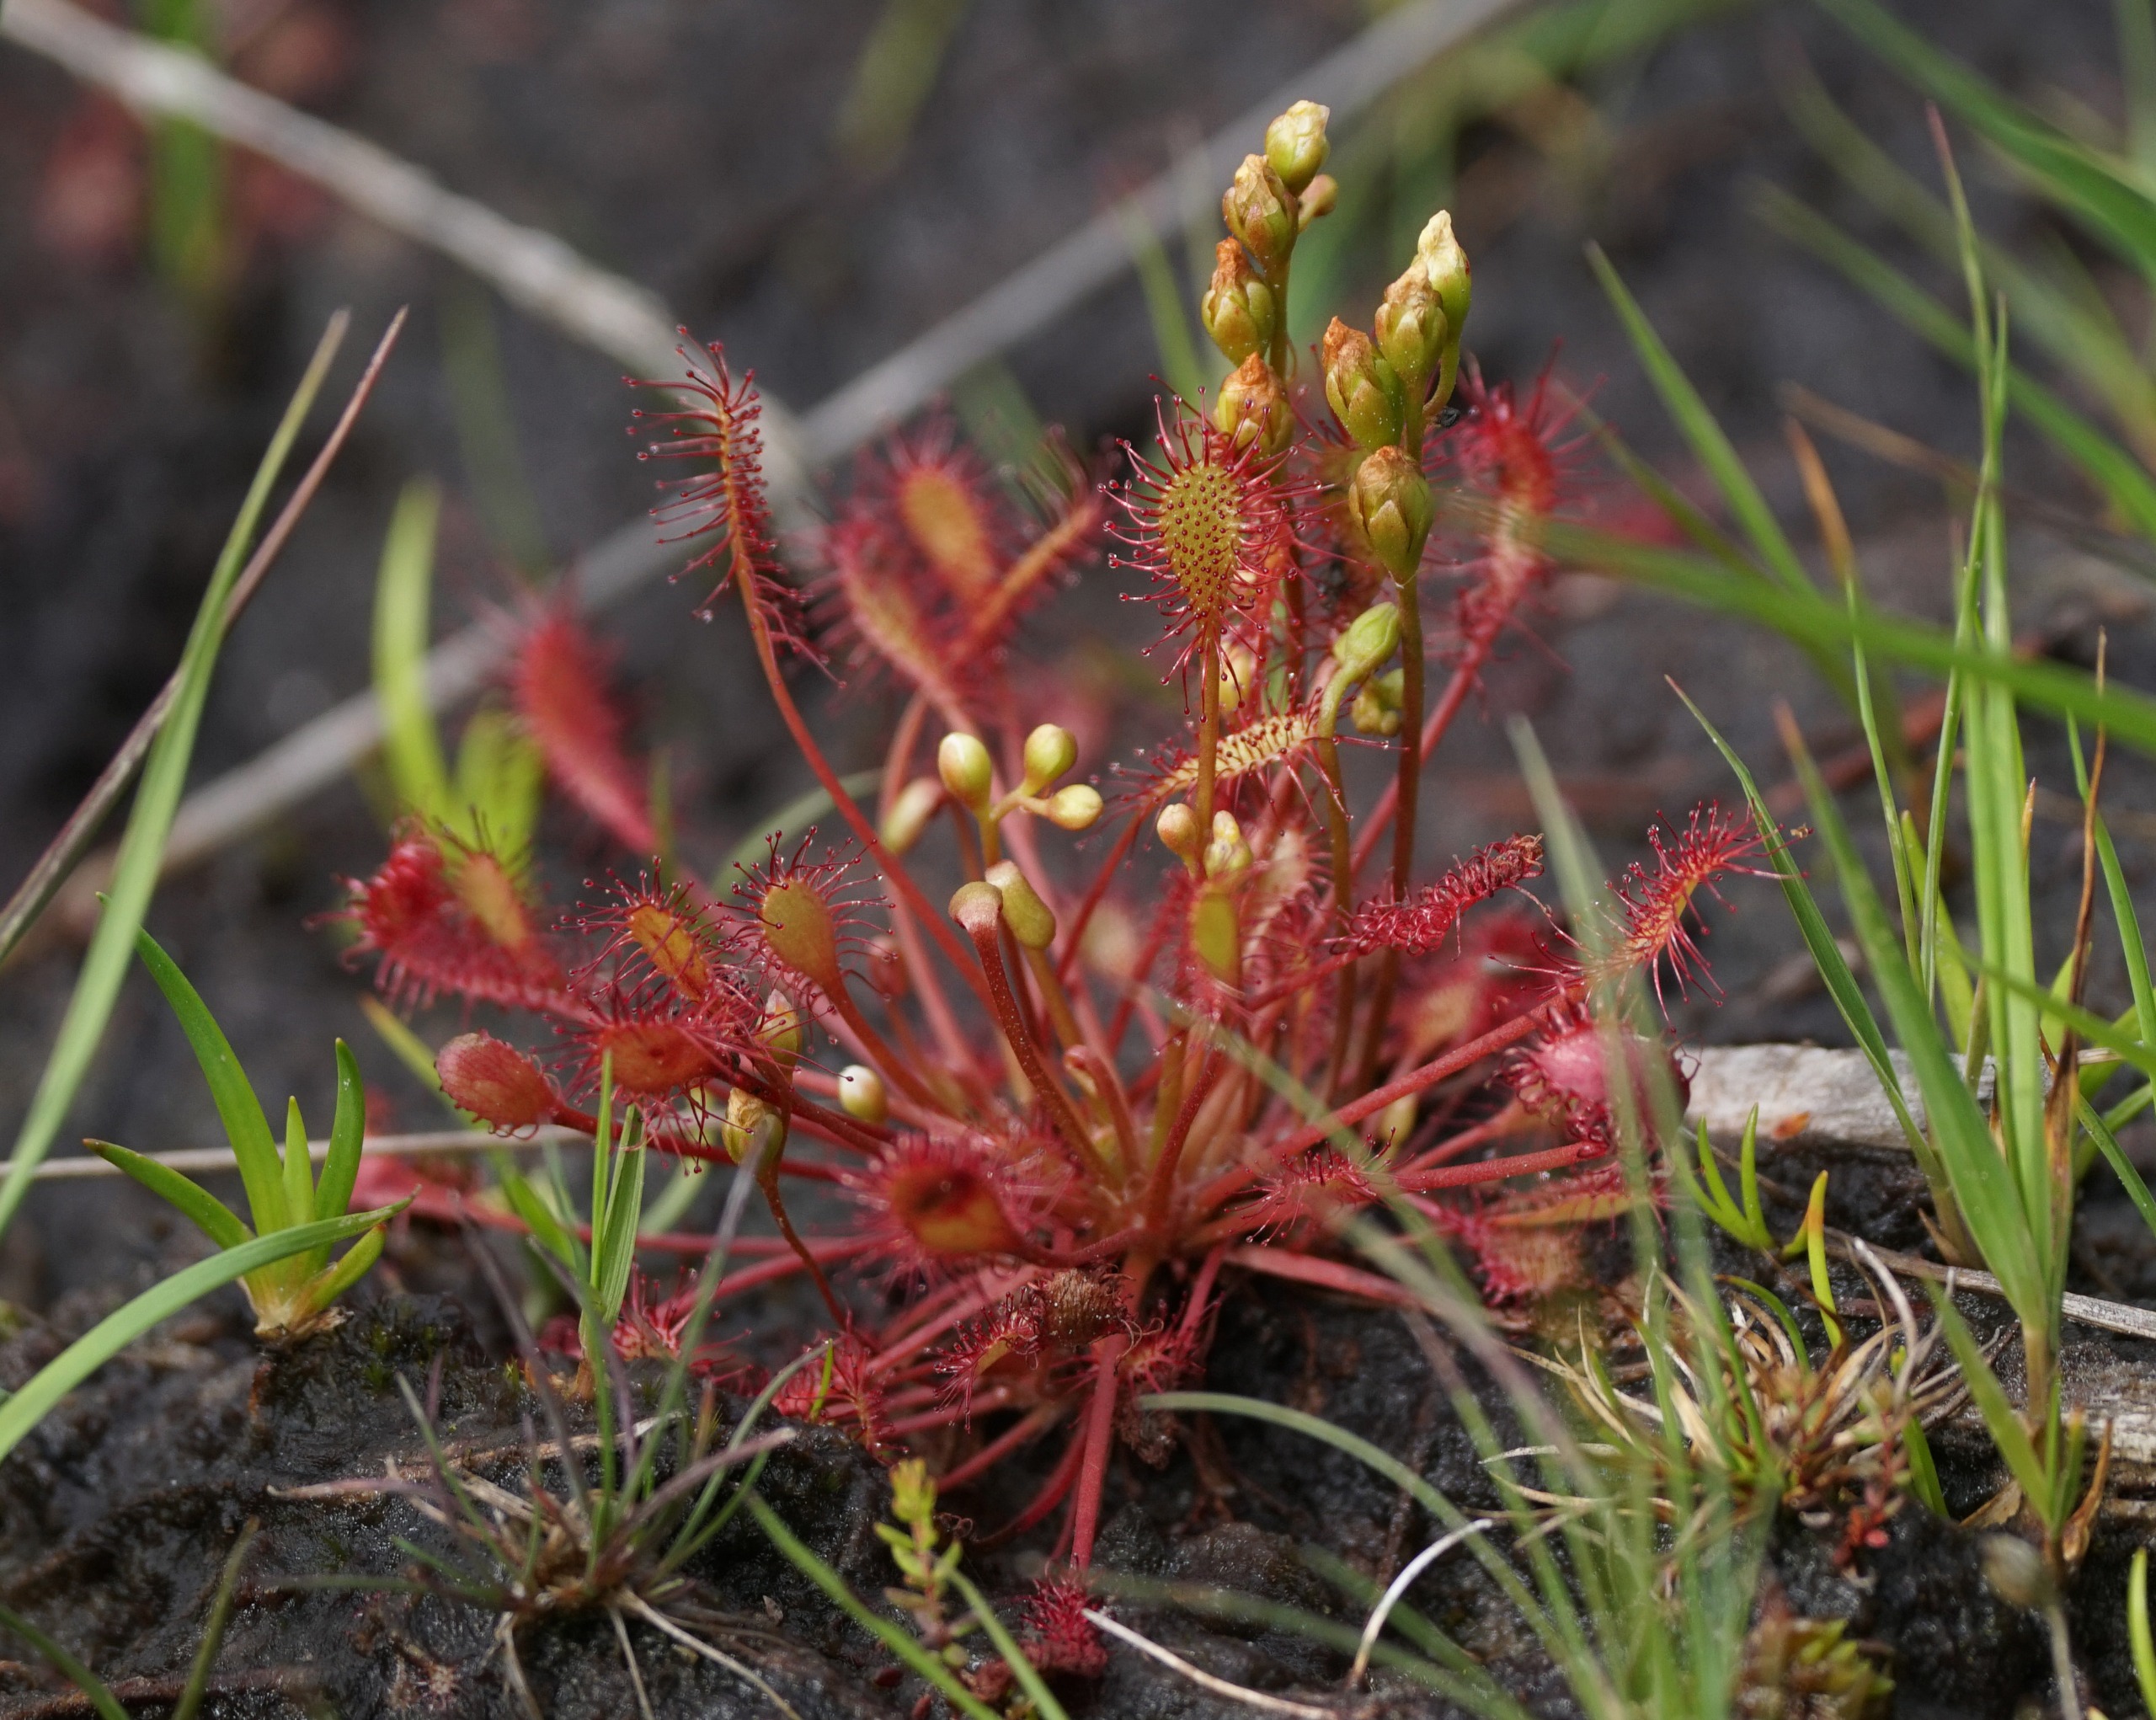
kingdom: Plantae
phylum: Tracheophyta
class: Magnoliopsida
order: Caryophyllales
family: Droseraceae
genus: Drosera
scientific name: Drosera intermedia
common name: Liden soldug
